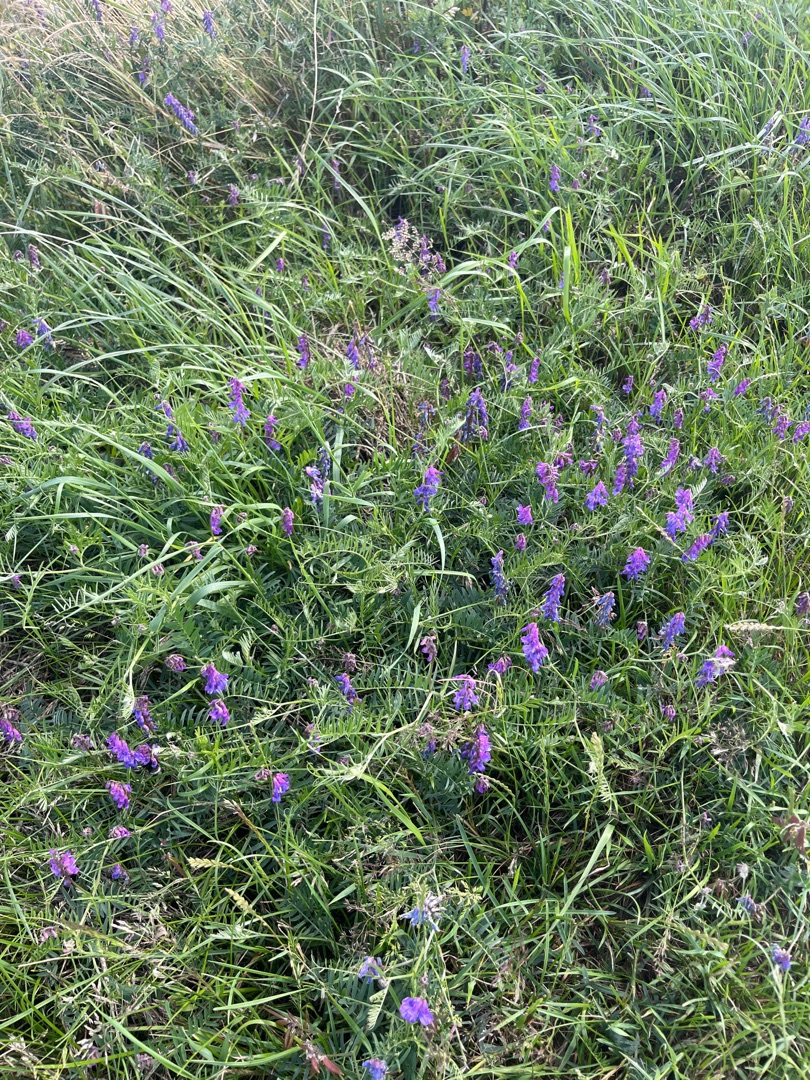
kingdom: Plantae
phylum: Tracheophyta
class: Magnoliopsida
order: Fabales
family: Fabaceae
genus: Vicia
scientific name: Vicia cracca
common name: Muse-vikke
